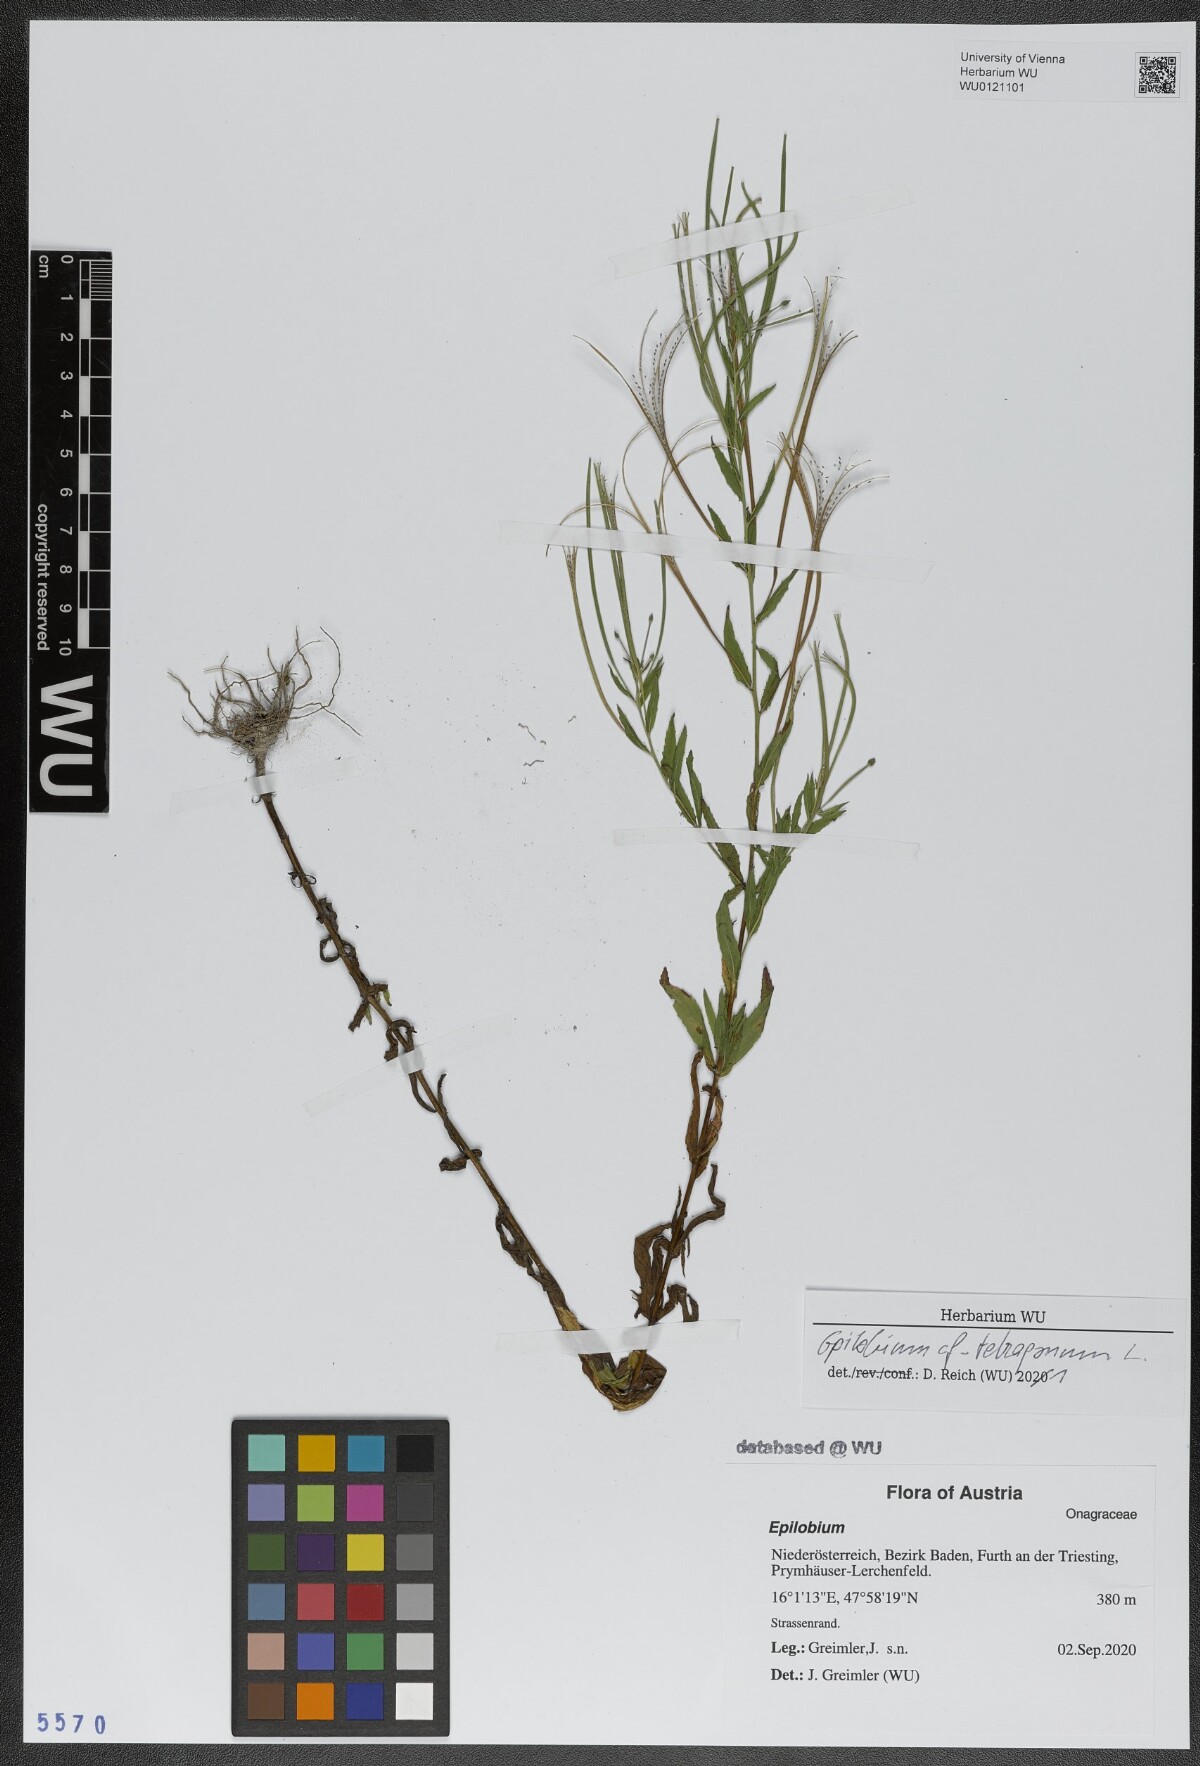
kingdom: Plantae
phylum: Tracheophyta
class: Magnoliopsida
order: Myrtales
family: Onagraceae
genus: Epilobium
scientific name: Epilobium tetragonum
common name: Square-stemmed willowherb
